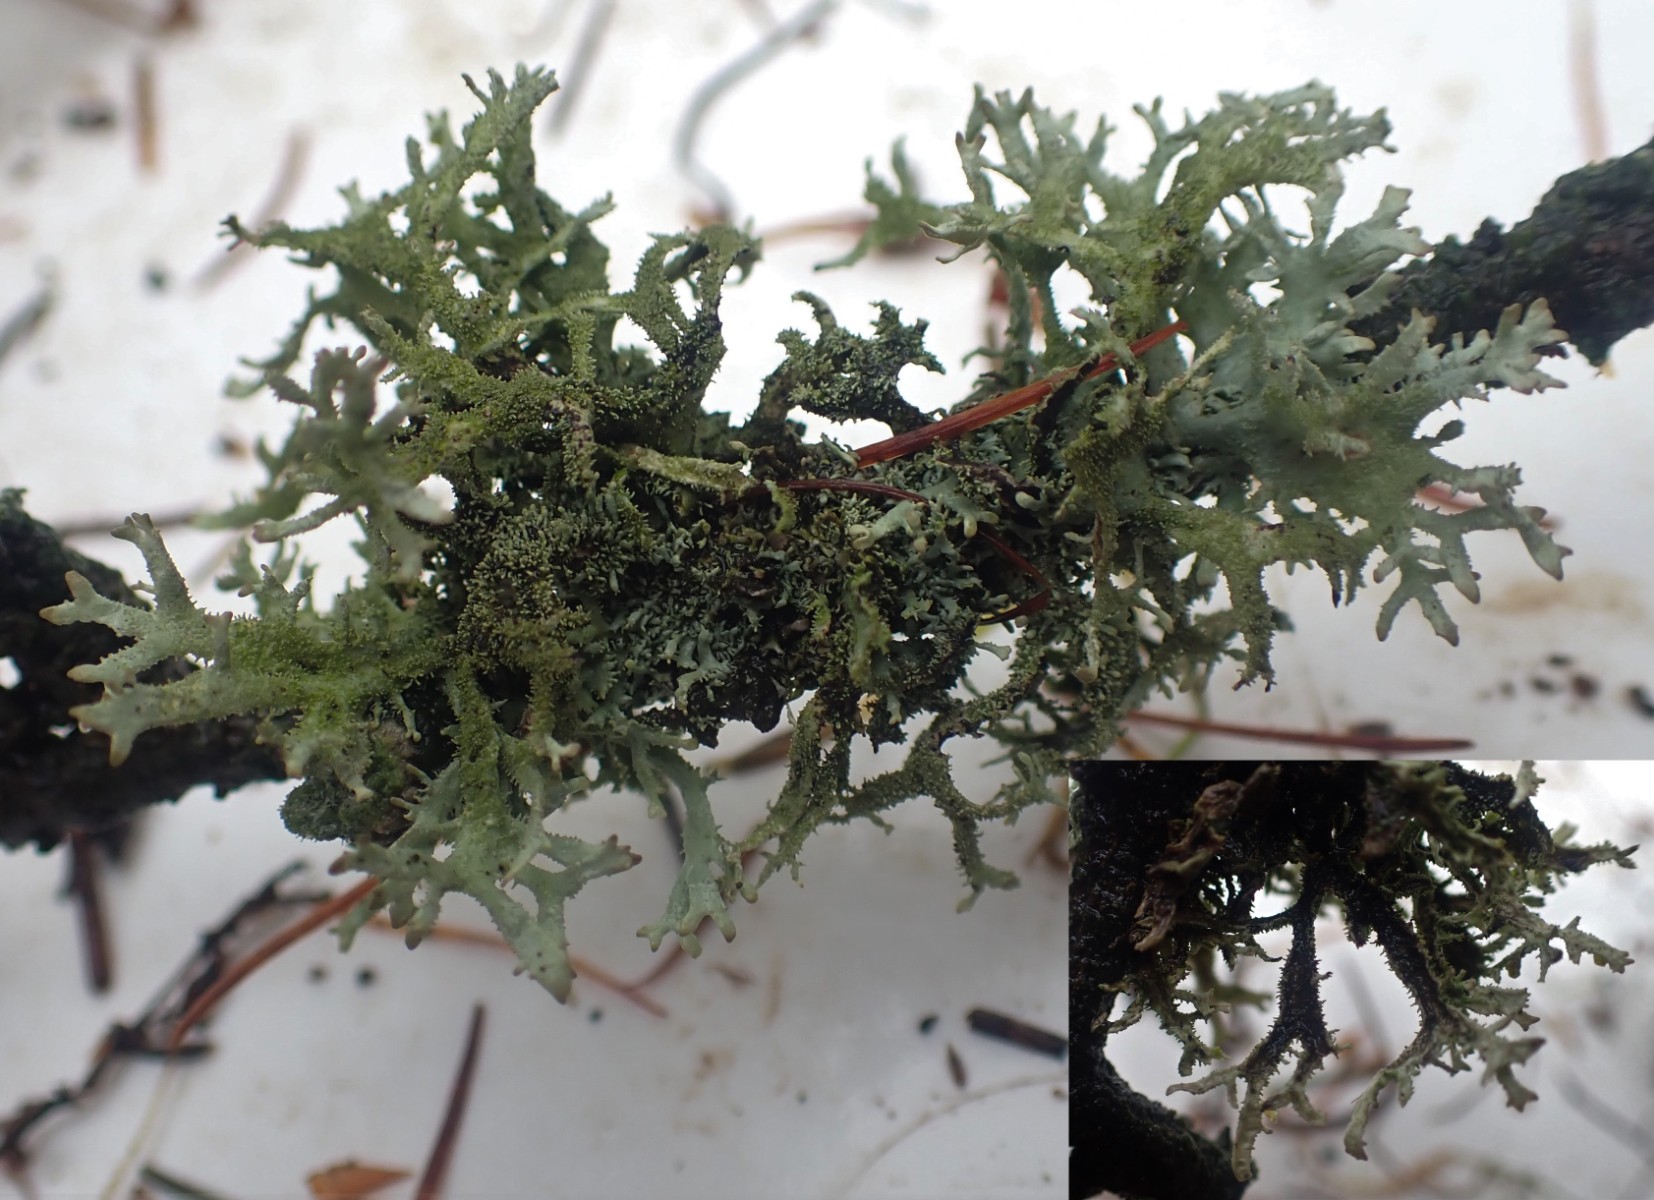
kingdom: Fungi
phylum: Ascomycota
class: Lecanoromycetes
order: Lecanorales
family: Parmeliaceae
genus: Pseudevernia
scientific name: Pseudevernia furfuracea
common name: grå fyrrelav
